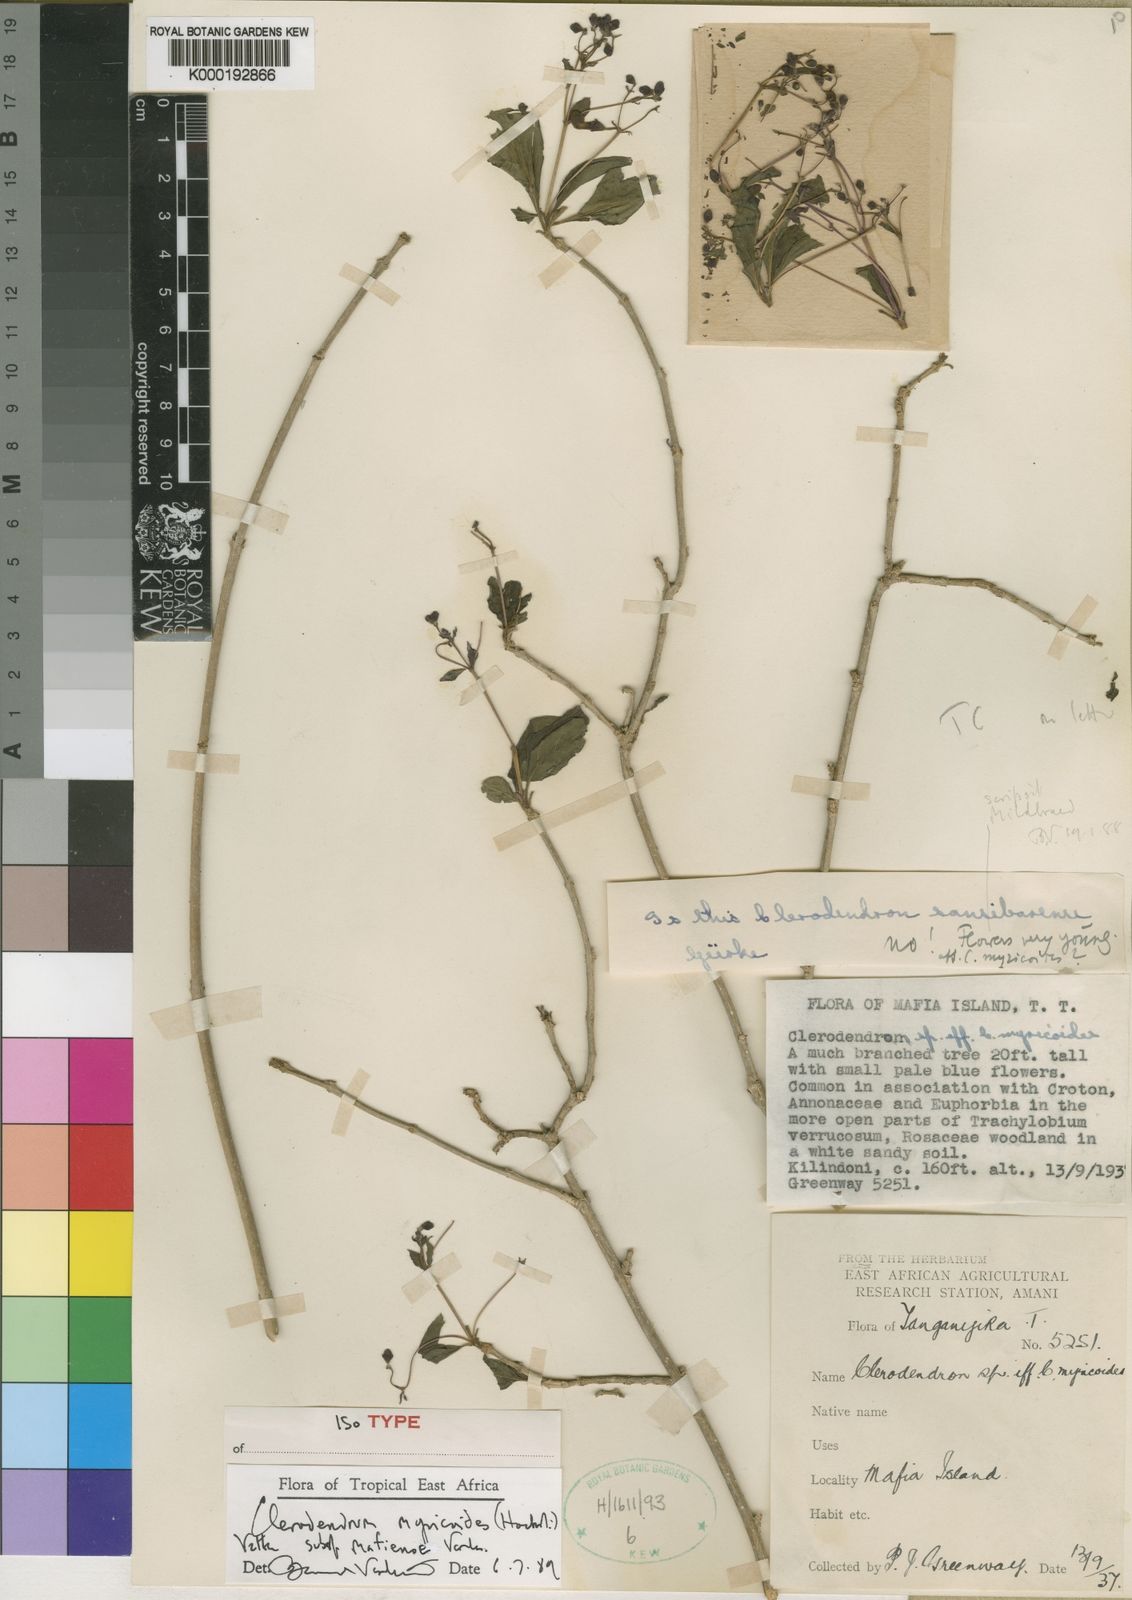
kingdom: Plantae
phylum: Tracheophyta
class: Magnoliopsida
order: Lamiales
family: Lamiaceae
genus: Rotheca
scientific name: Rotheca myricoides
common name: Cats-whiskers
